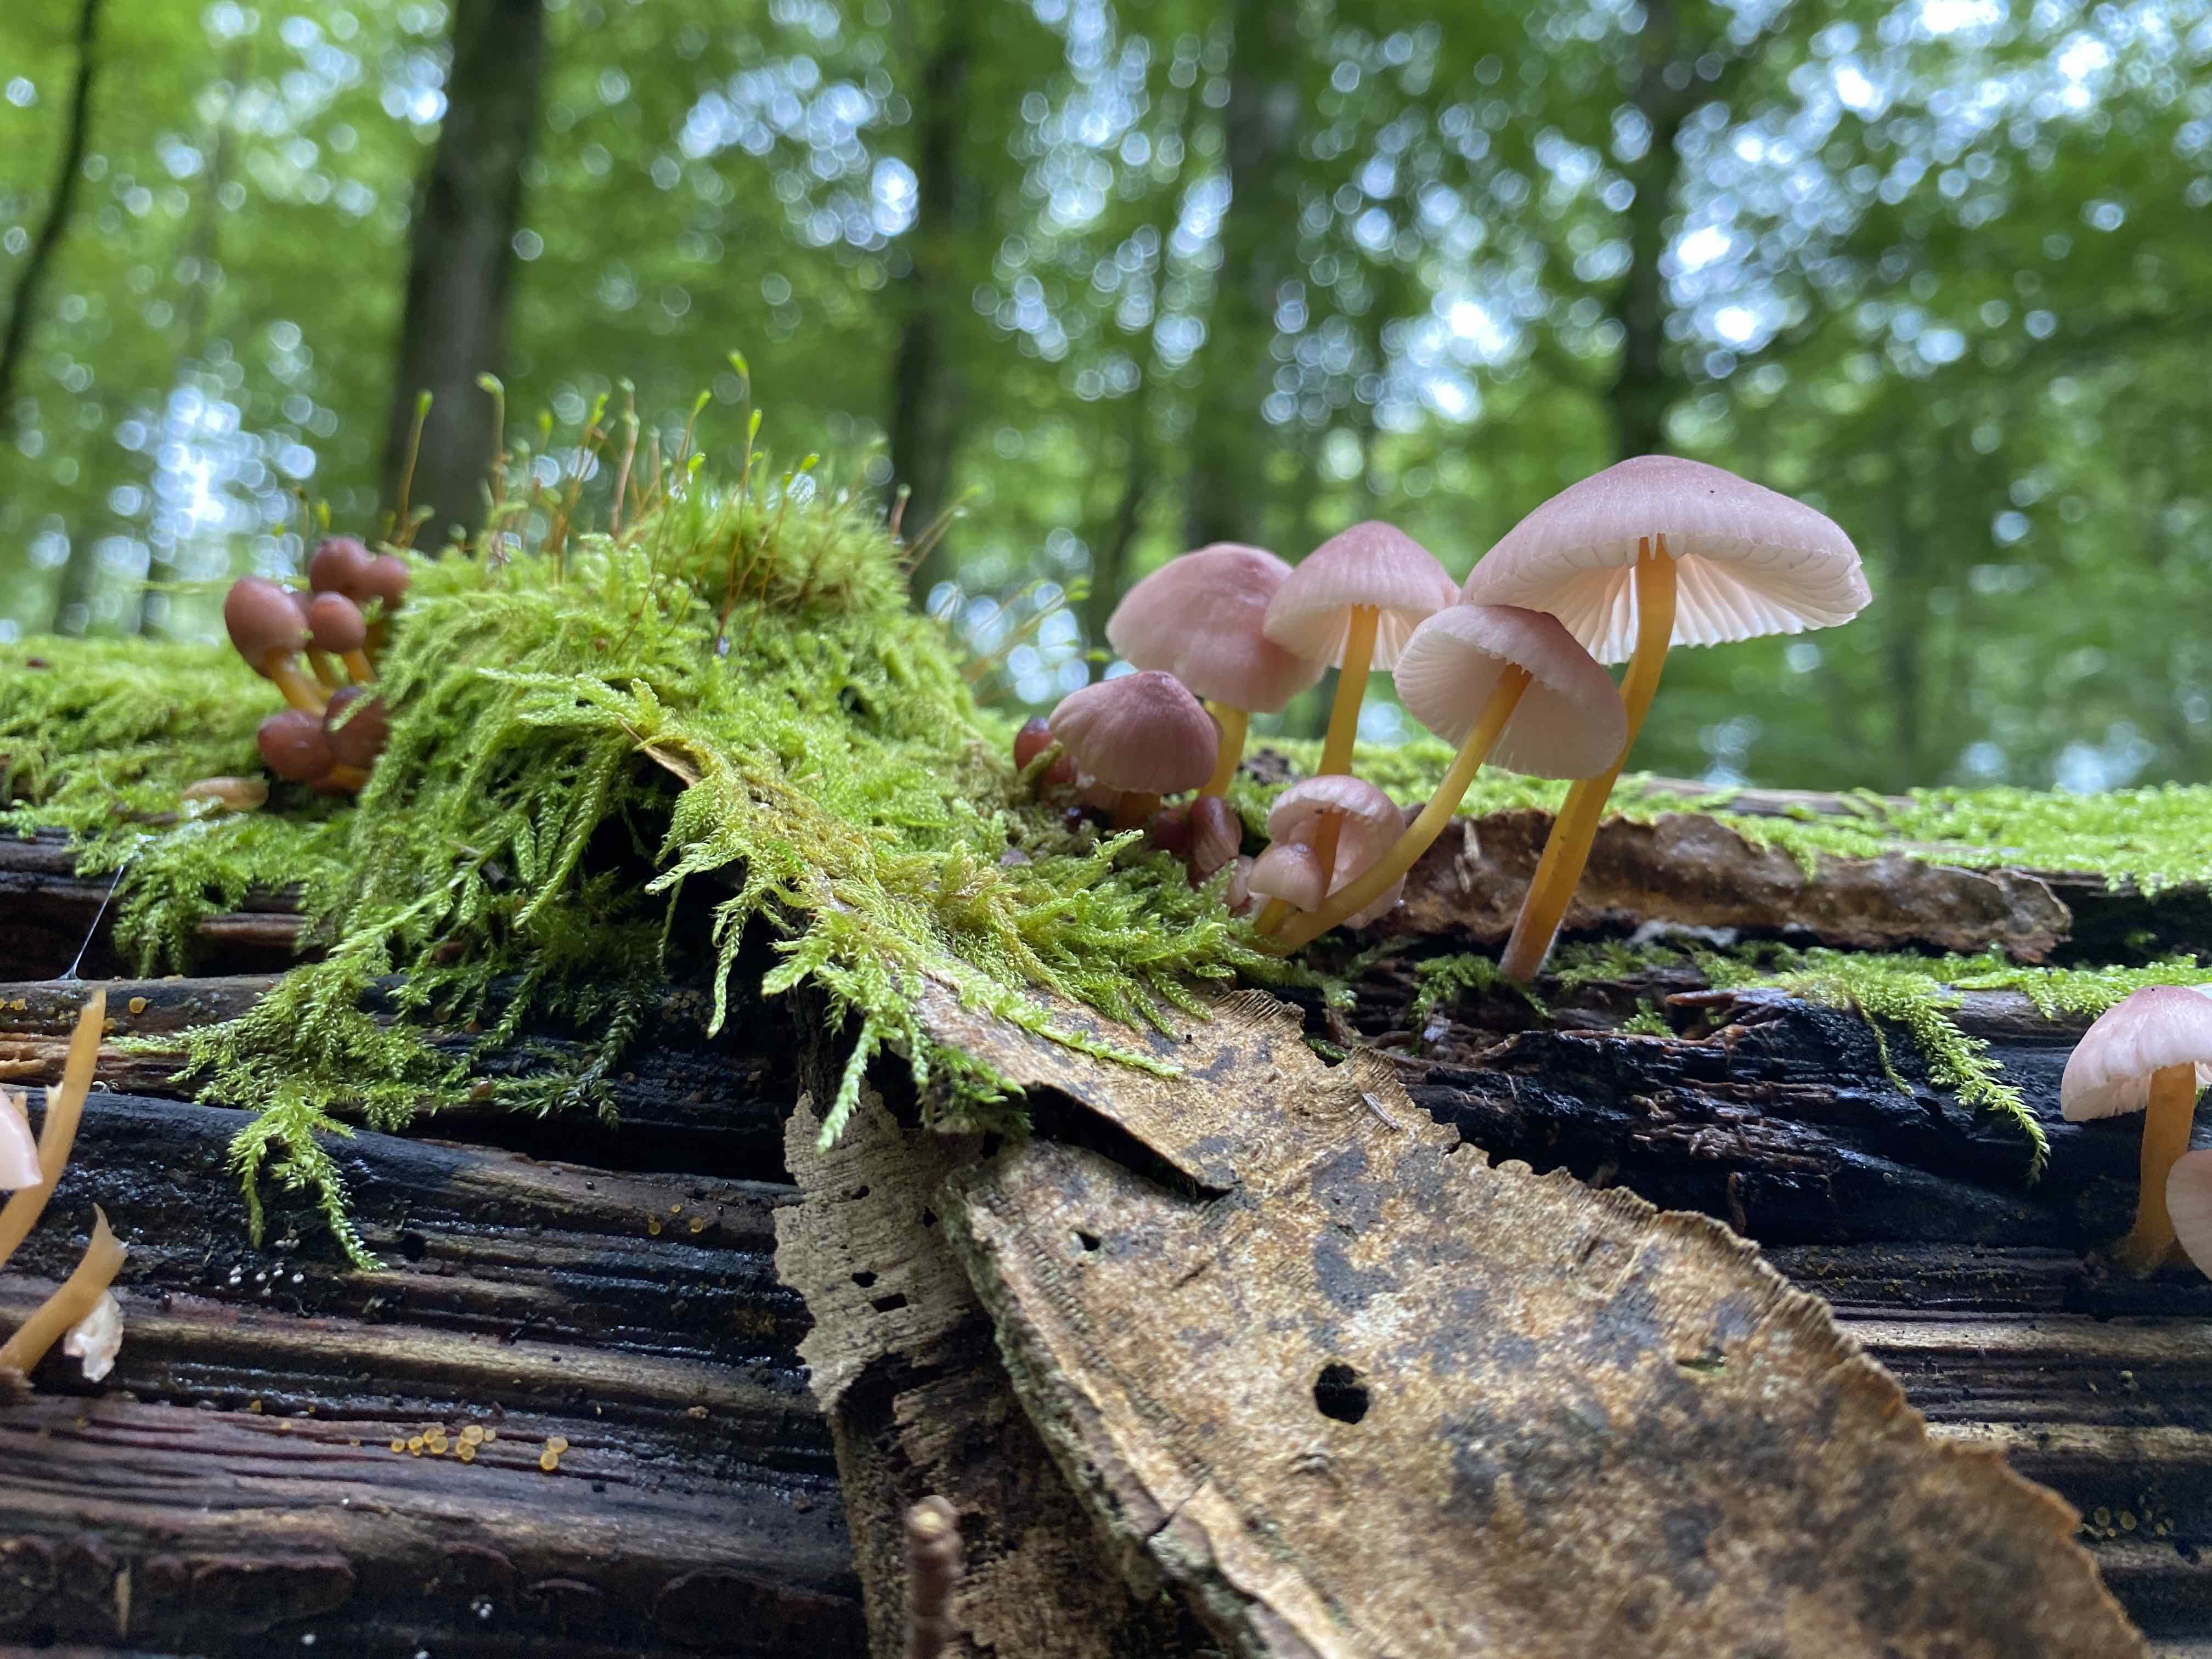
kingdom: Fungi
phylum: Basidiomycota
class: Agaricomycetes
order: Agaricales
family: Mycenaceae
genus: Mycena
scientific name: Mycena renati
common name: smuk huesvamp
